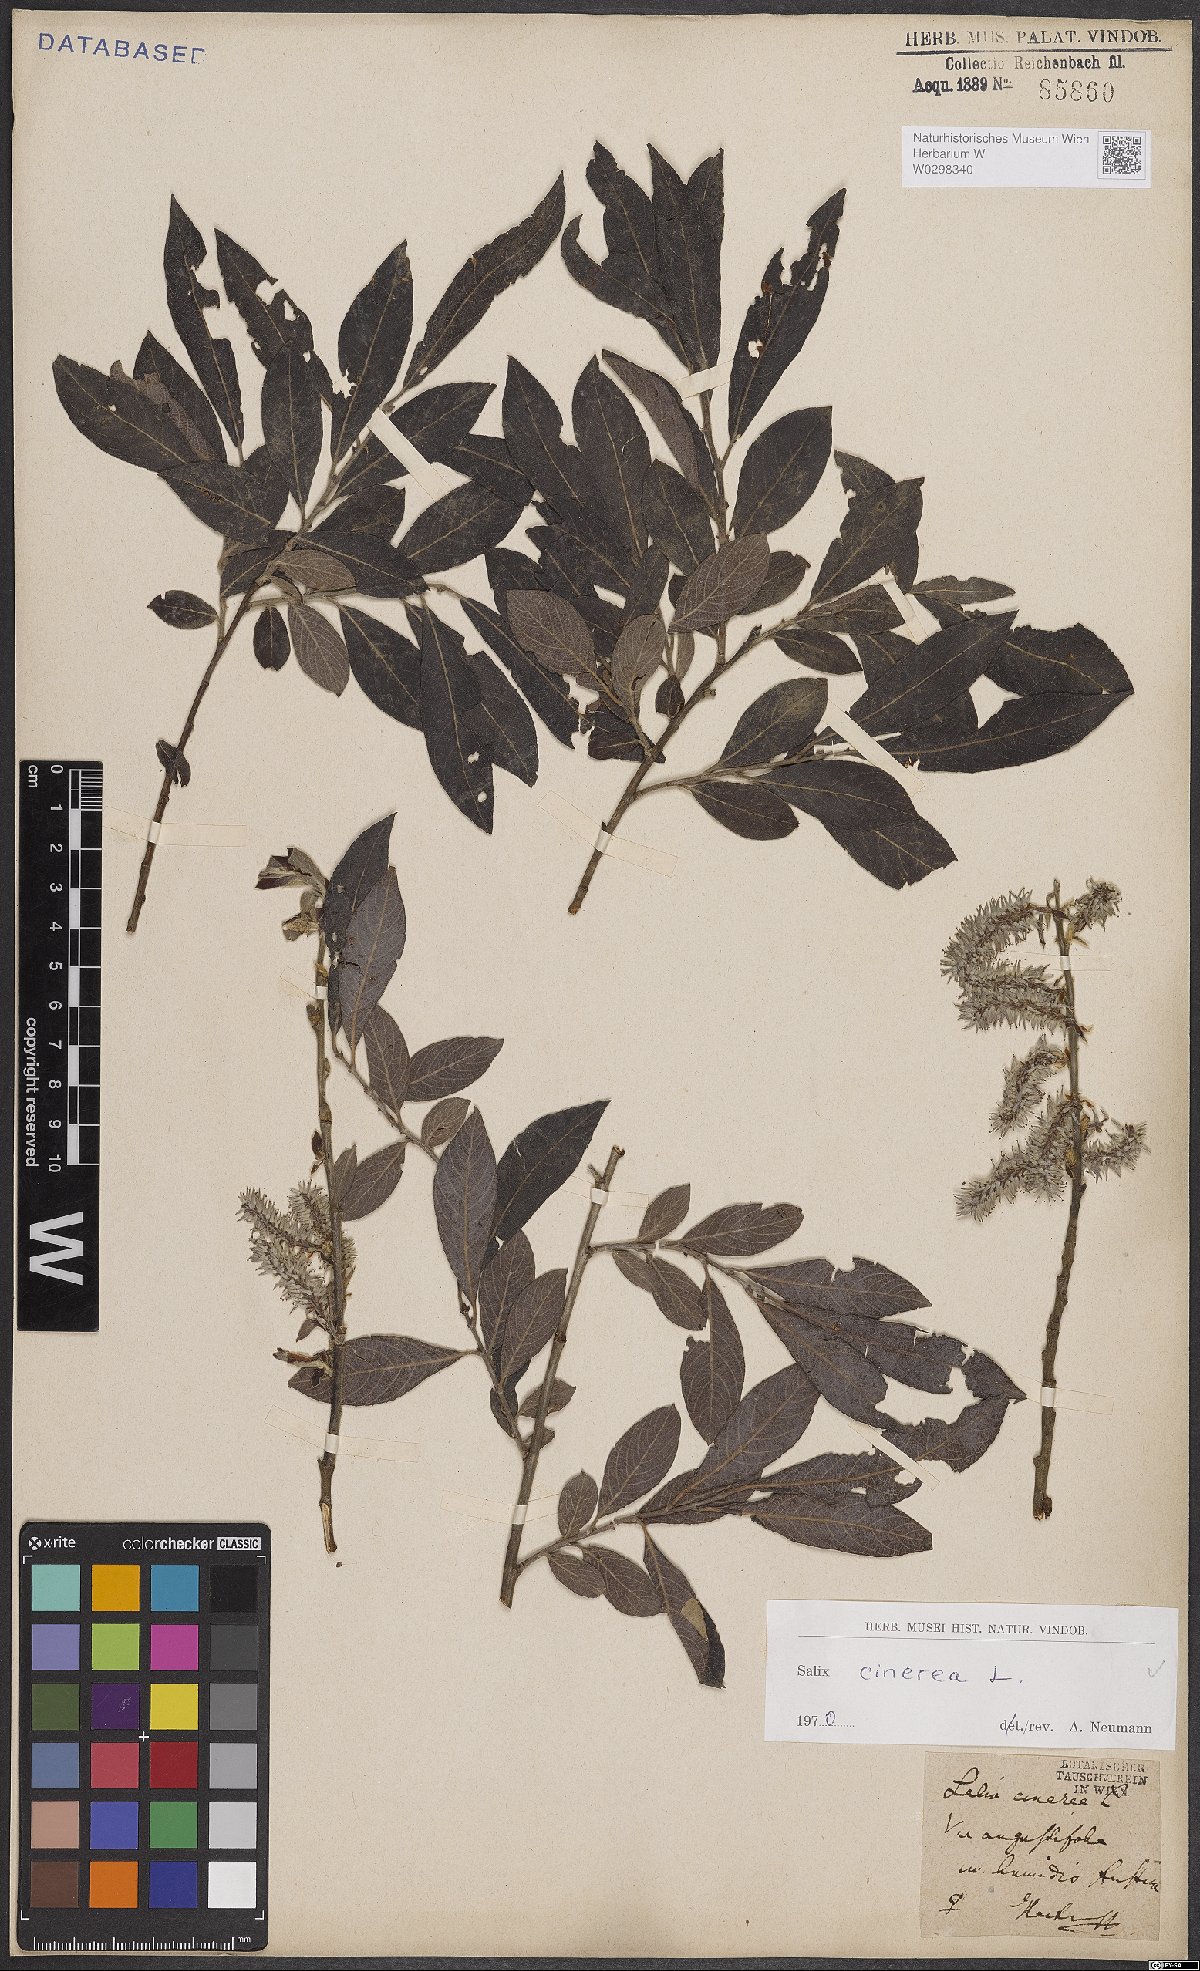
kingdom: Plantae
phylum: Tracheophyta
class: Magnoliopsida
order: Malpighiales
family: Salicaceae
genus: Salix
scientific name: Salix cinerea
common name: Common sallow
